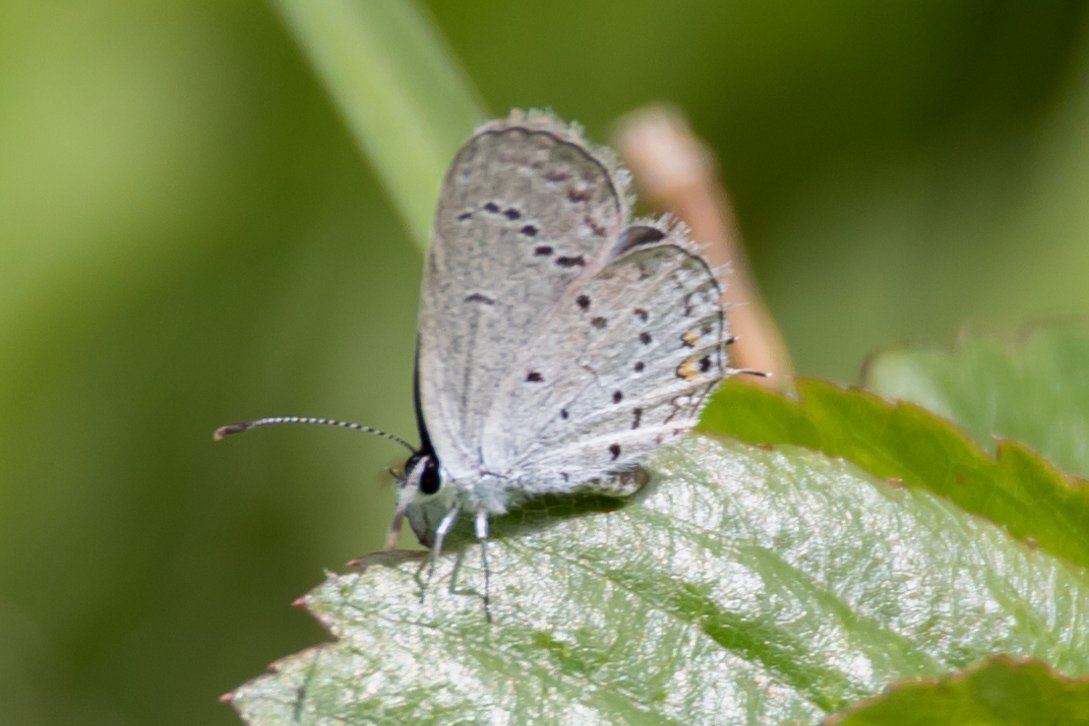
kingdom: Animalia
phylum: Arthropoda
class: Insecta
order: Lepidoptera
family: Lycaenidae
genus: Elkalyce
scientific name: Elkalyce comyntas
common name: Eastern Tailed-Blue
